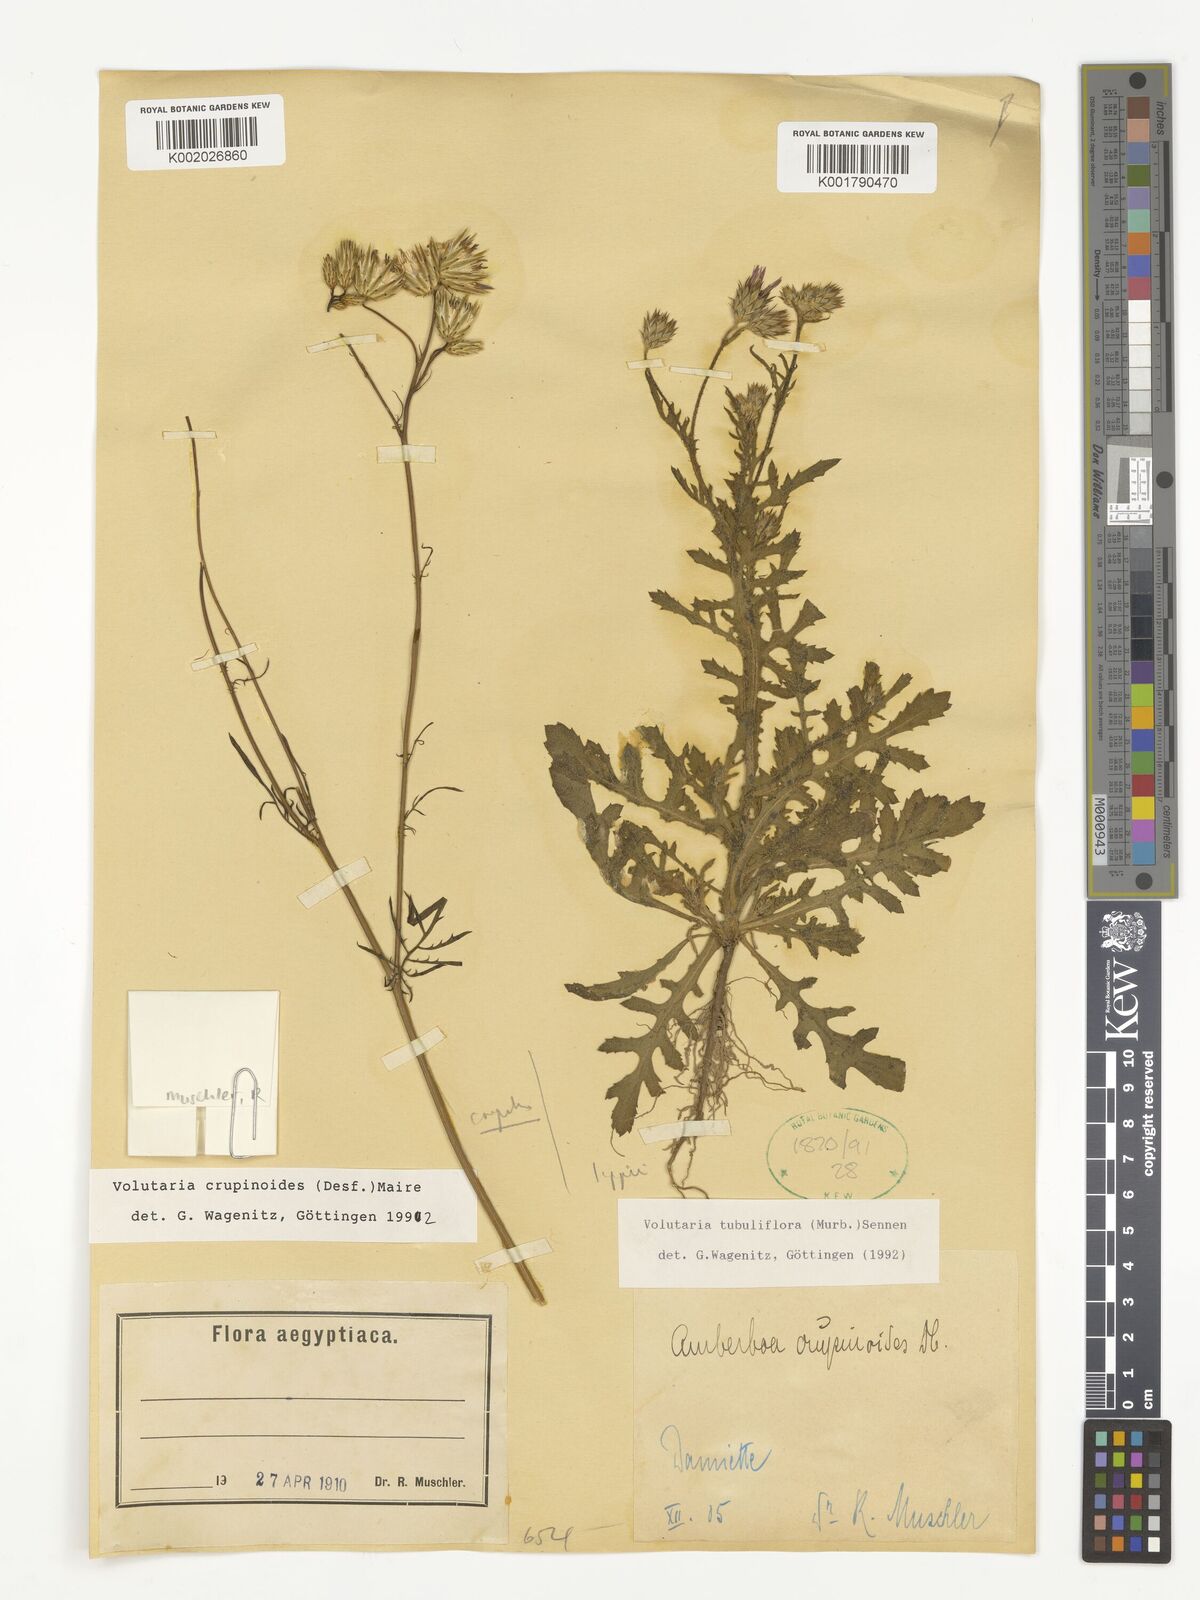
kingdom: Plantae
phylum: Tracheophyta
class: Magnoliopsida
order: Asterales
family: Asteraceae
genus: Volutaria
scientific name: Volutaria tubuliflora
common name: Desert knapweed
